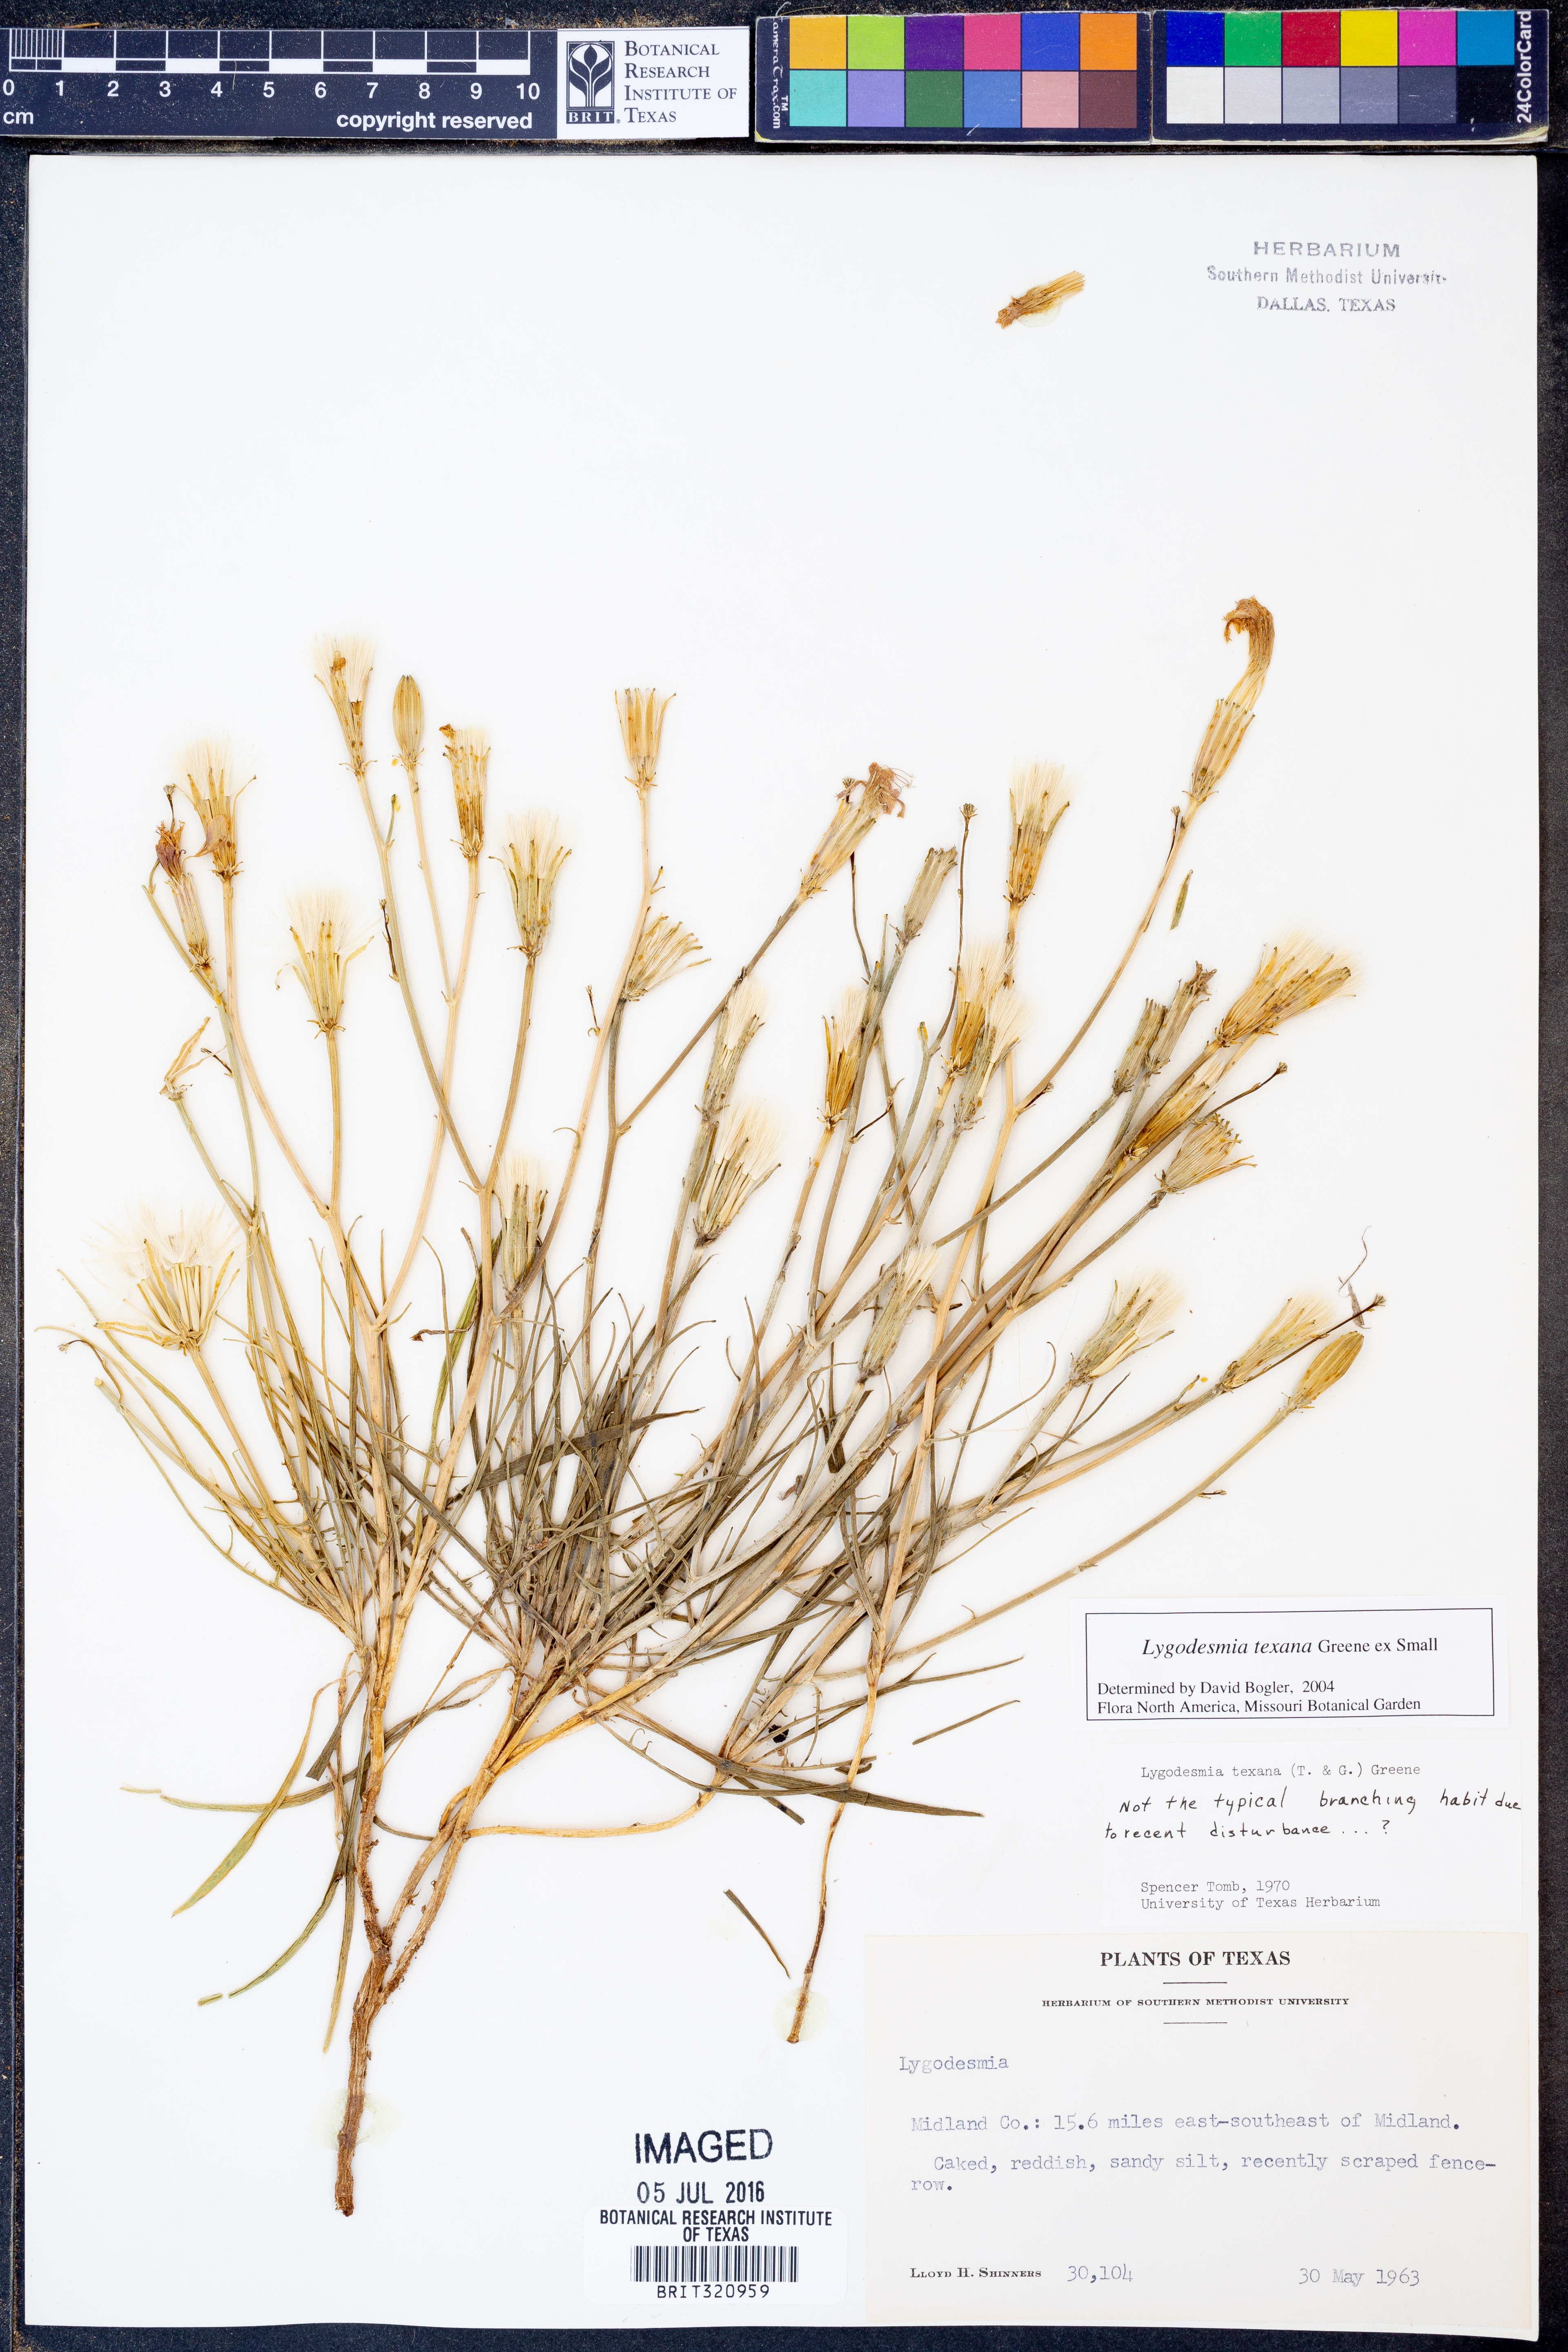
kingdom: Plantae
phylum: Tracheophyta
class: Magnoliopsida
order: Asterales
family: Asteraceae
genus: Lygodesmia
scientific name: Lygodesmia texana
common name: Texas skeleton-plant
